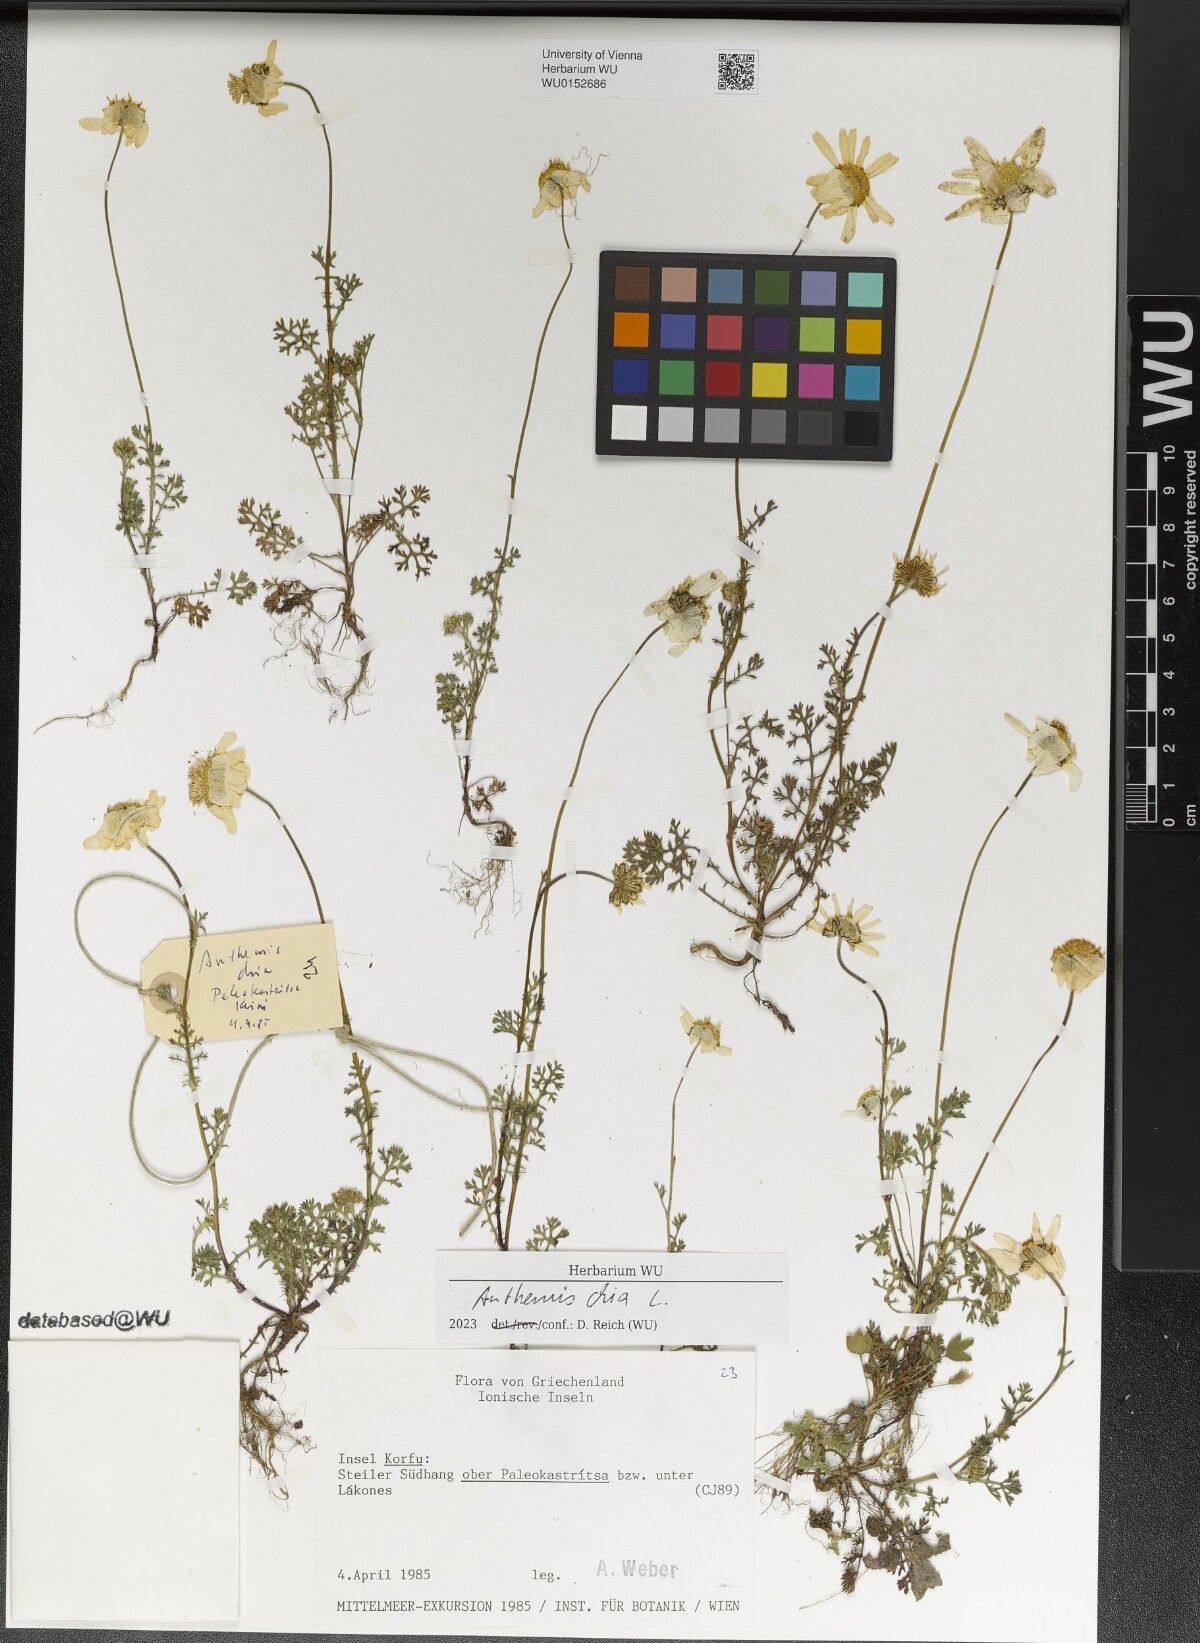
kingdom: Plantae
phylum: Tracheophyta
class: Magnoliopsida
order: Asterales
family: Asteraceae
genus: Anthemis
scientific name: Anthemis chia
